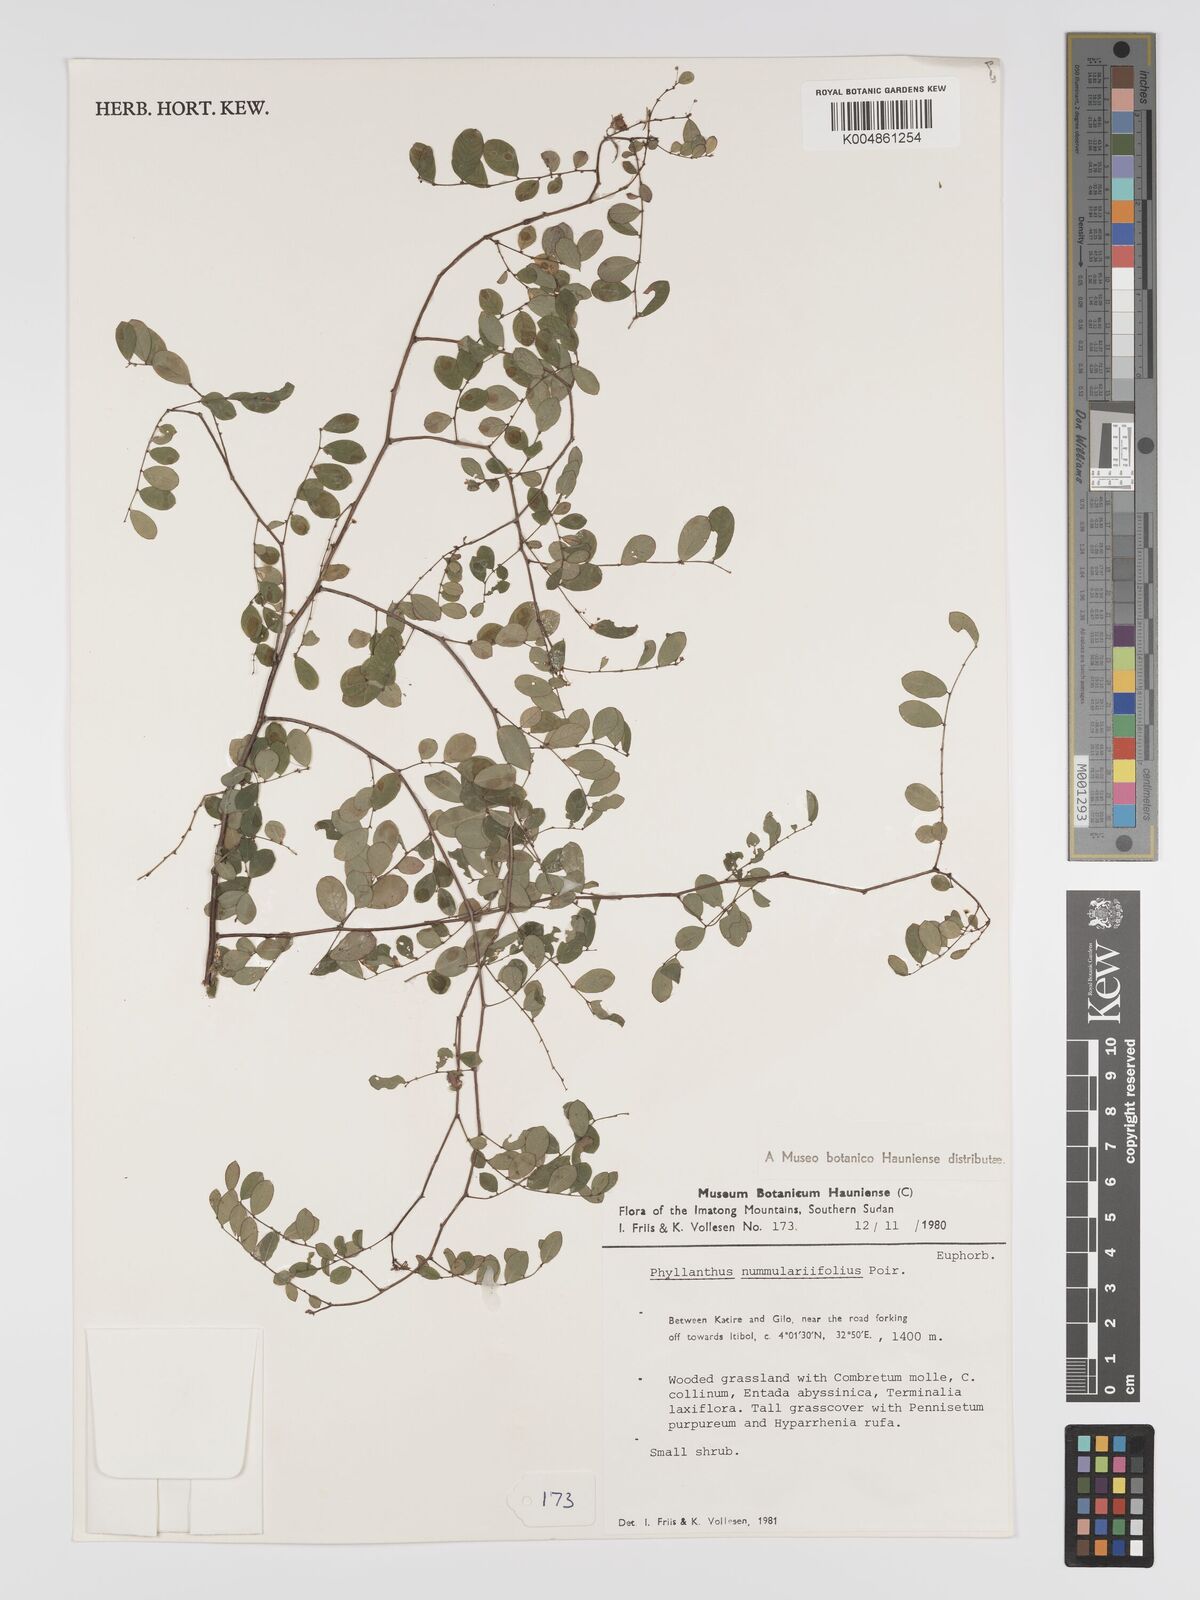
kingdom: Plantae
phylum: Tracheophyta
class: Magnoliopsida
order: Malpighiales
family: Phyllanthaceae
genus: Phyllanthus
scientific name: Phyllanthus nummulariifolius
